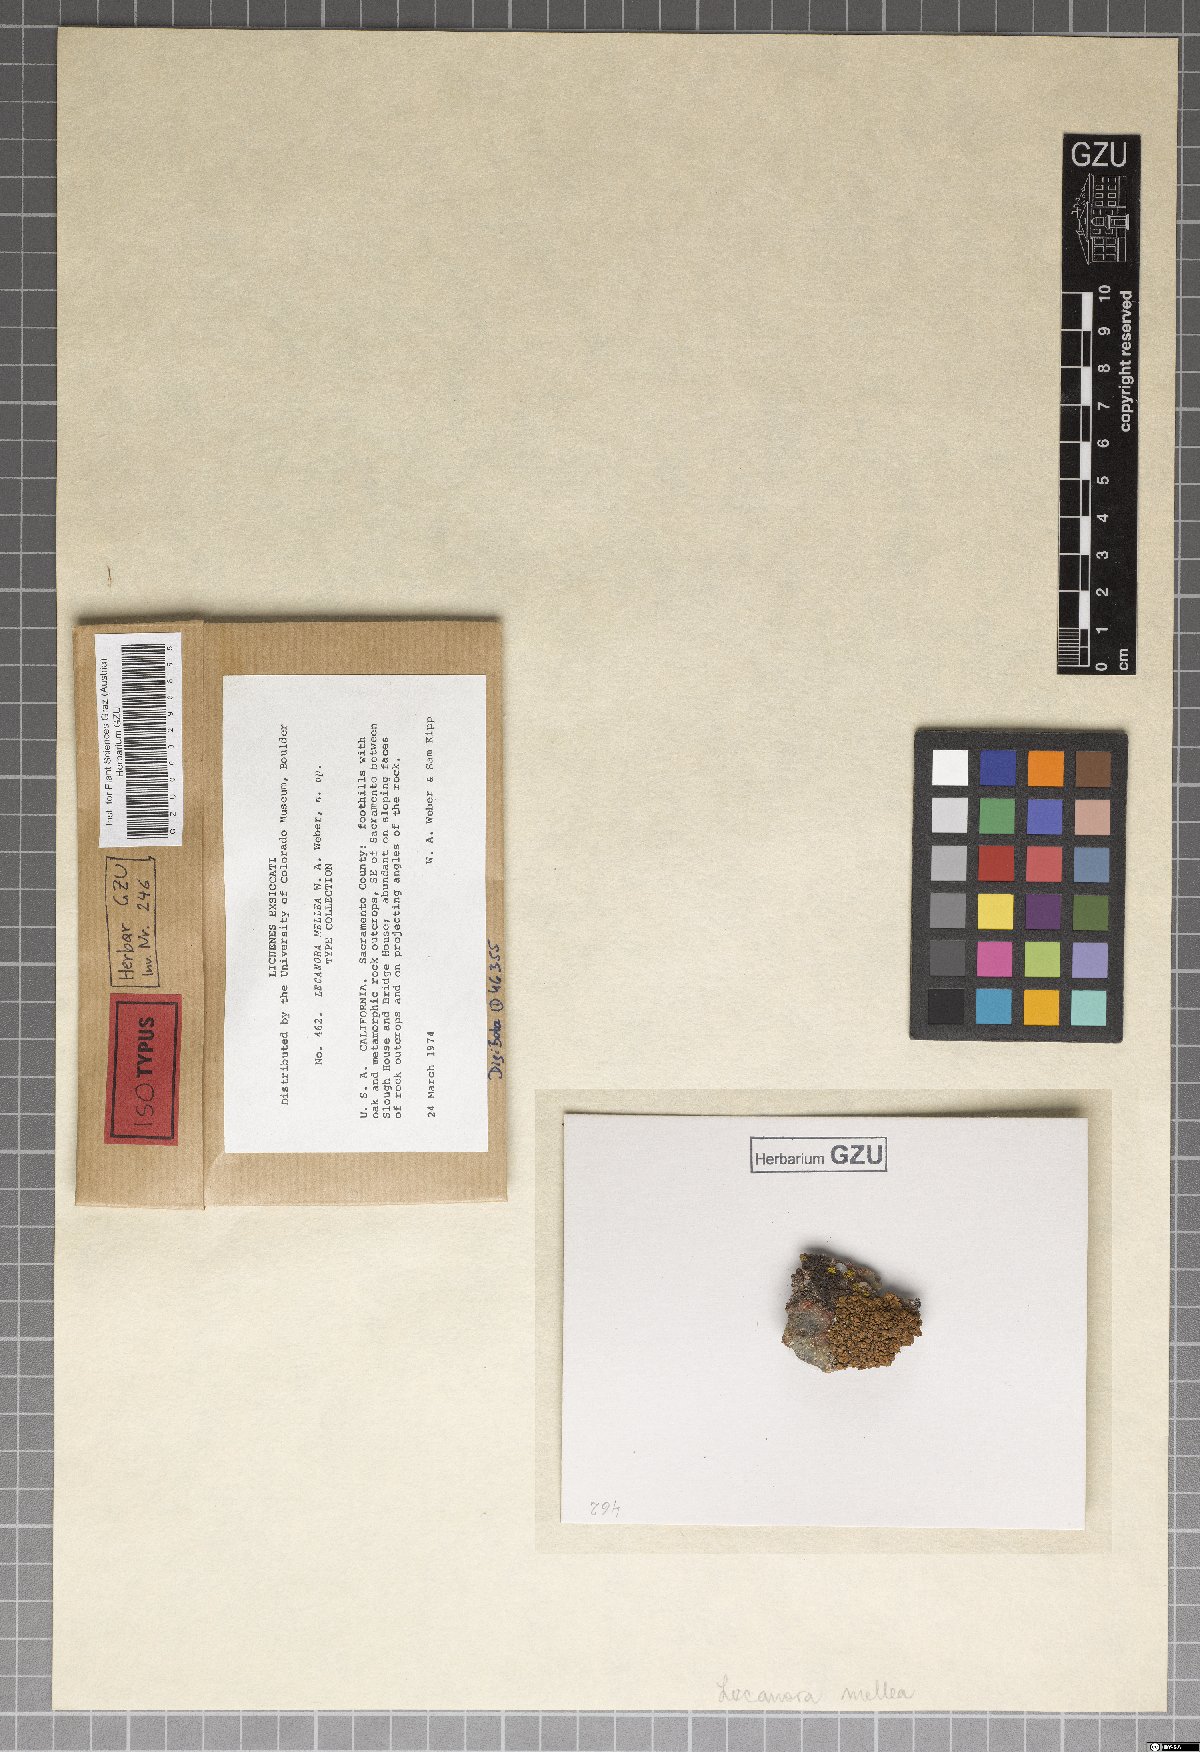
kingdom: Fungi
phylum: Ascomycota
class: Lecanoromycetes
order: Lecanorales
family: Lecanoraceae
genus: Lecanora
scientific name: Lecanora mellea
